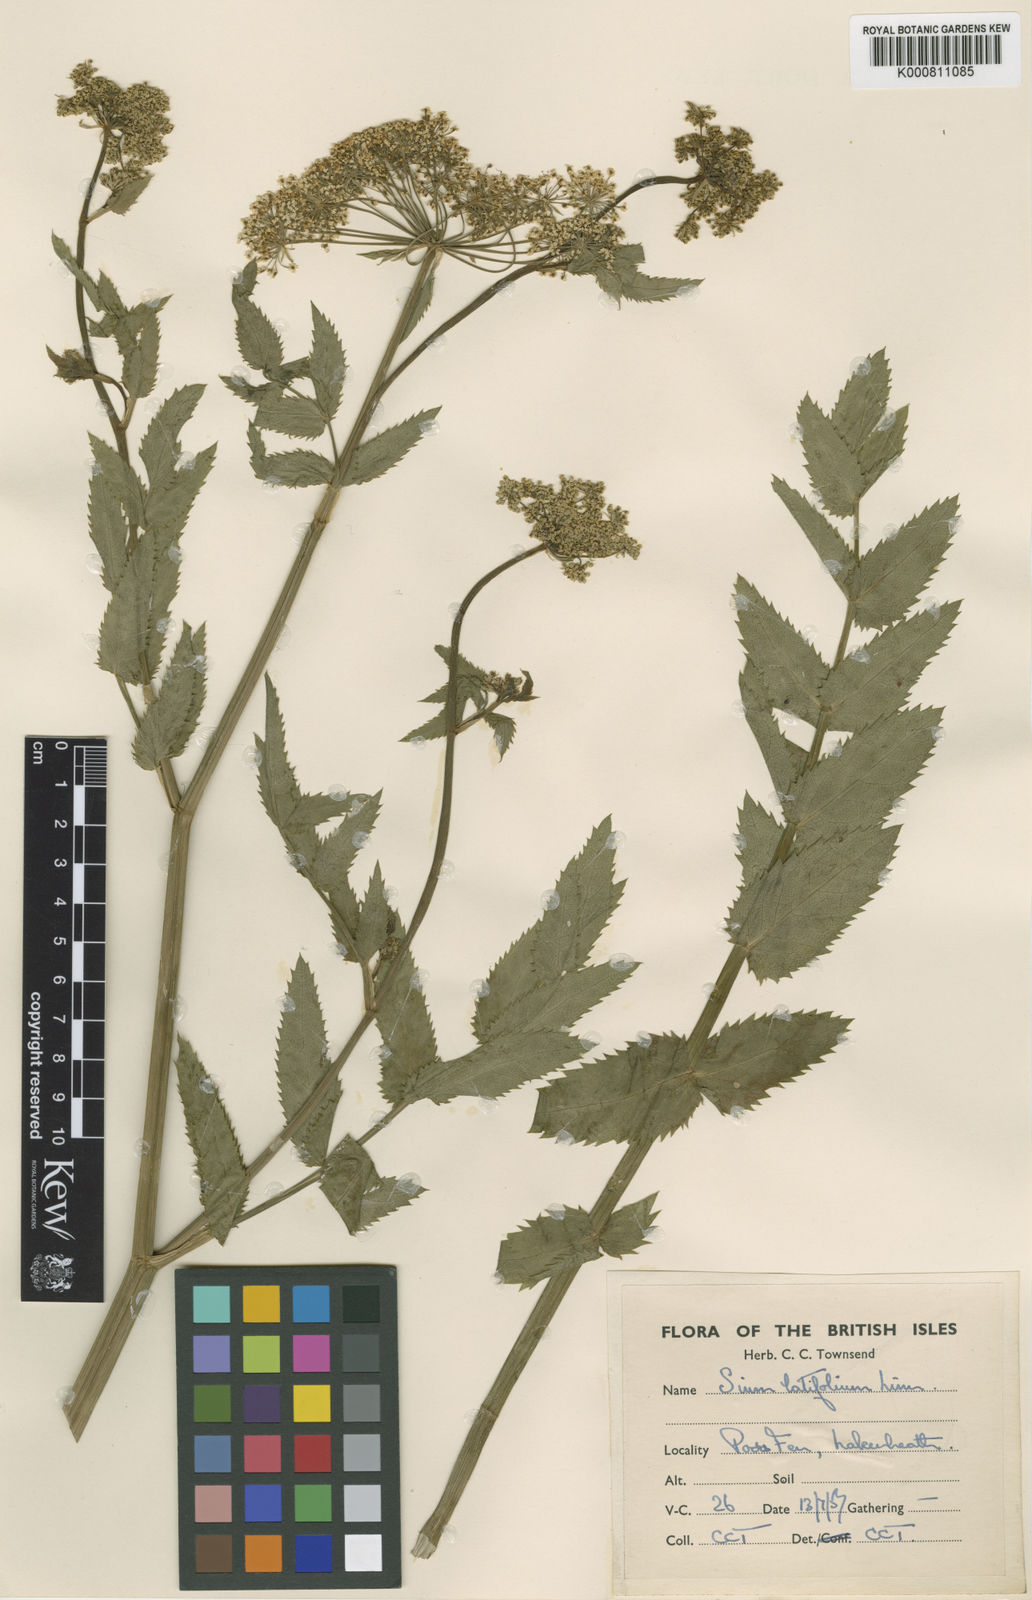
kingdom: Plantae
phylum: Tracheophyta
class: Magnoliopsida
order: Apiales
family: Apiaceae
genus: Sium
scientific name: Sium latifolium
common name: Greater water-parsnip
